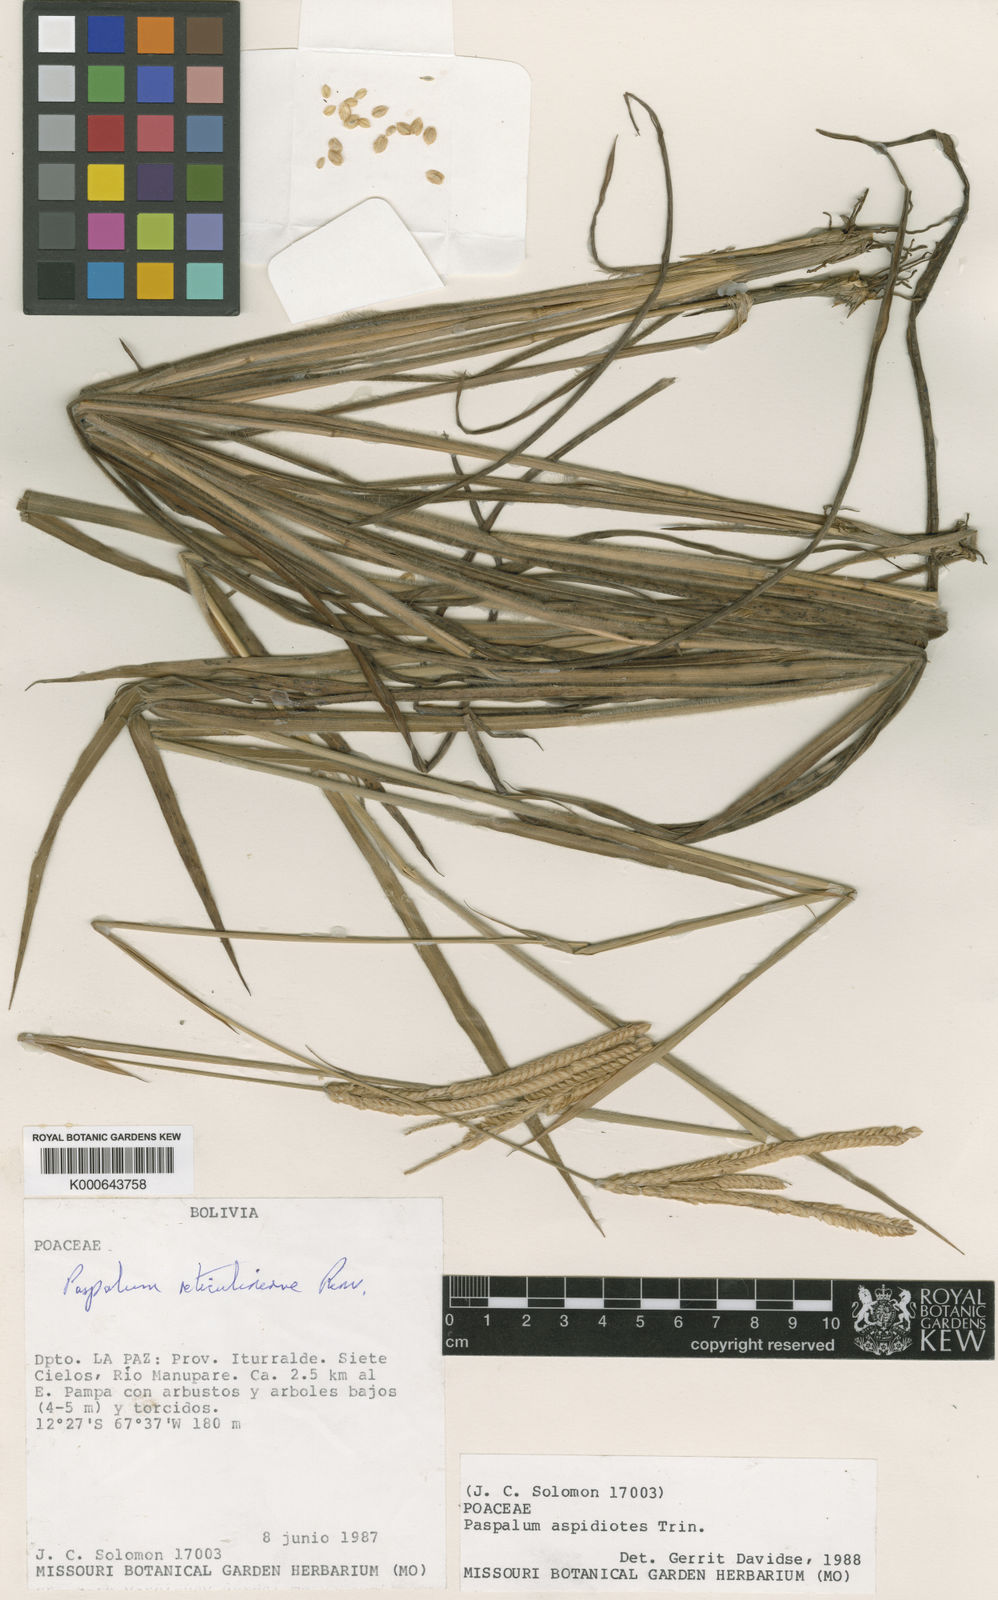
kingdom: Plantae
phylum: Tracheophyta
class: Liliopsida
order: Poales
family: Poaceae
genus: Paspalum
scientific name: Paspalum reticulinerve
